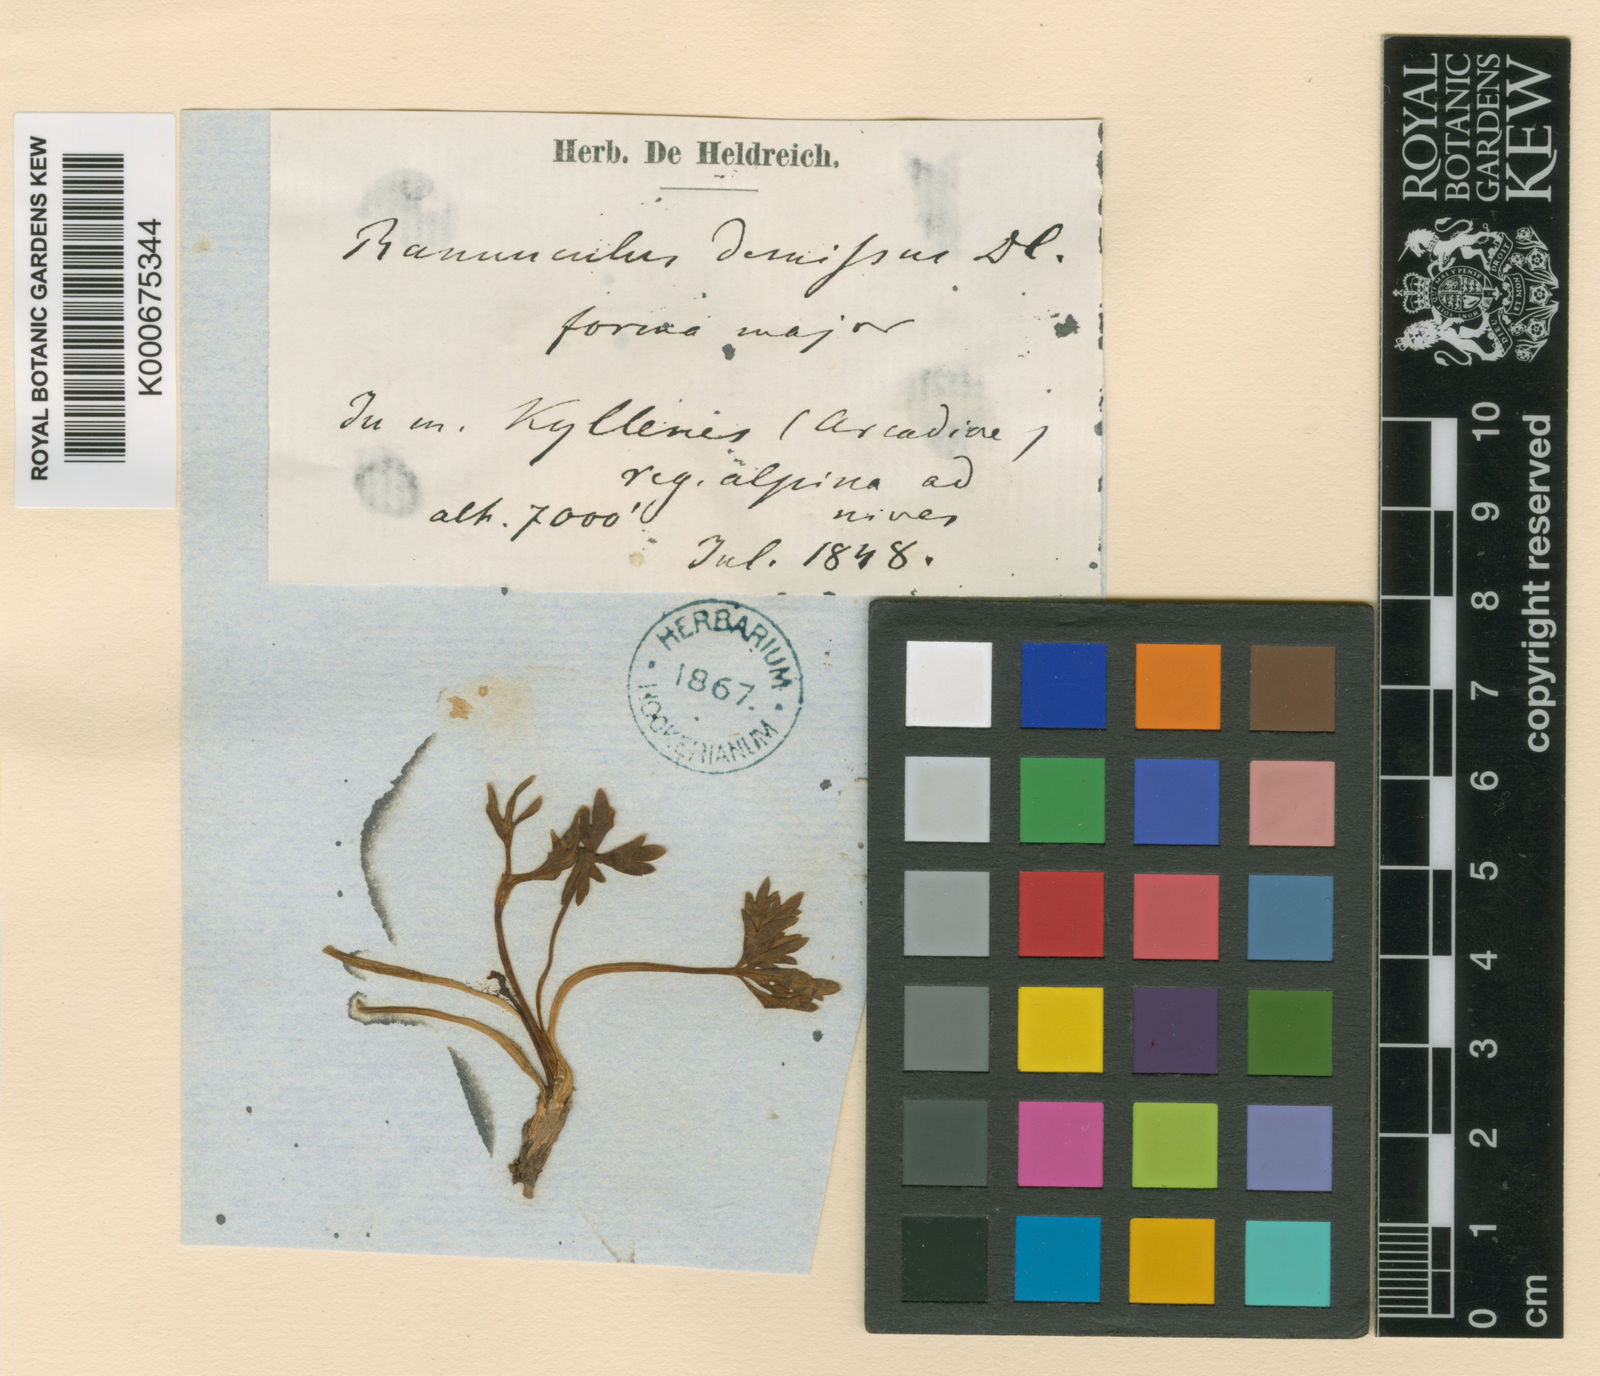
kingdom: Plantae
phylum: Tracheophyta
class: Magnoliopsida
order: Ranunculales
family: Ranunculaceae
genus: Ranunculus
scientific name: Ranunculus demissus
